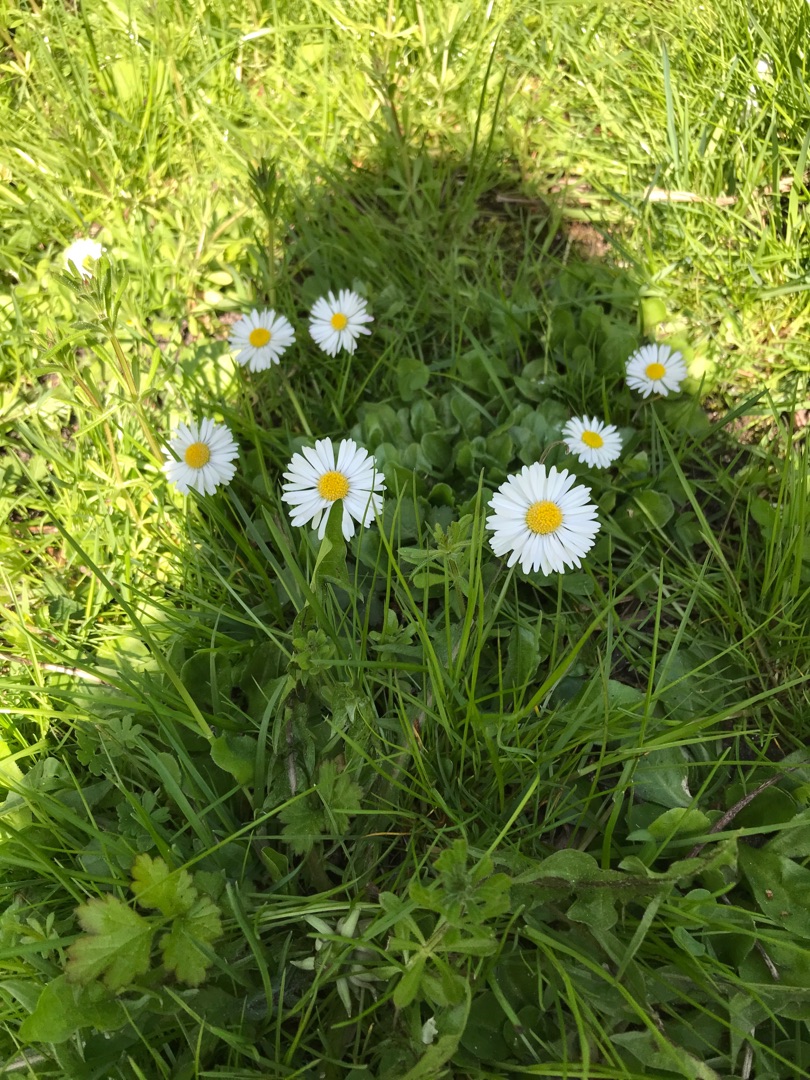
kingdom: Plantae
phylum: Tracheophyta
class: Magnoliopsida
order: Asterales
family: Asteraceae
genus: Bellis
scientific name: Bellis perennis
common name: Tusindfryd
